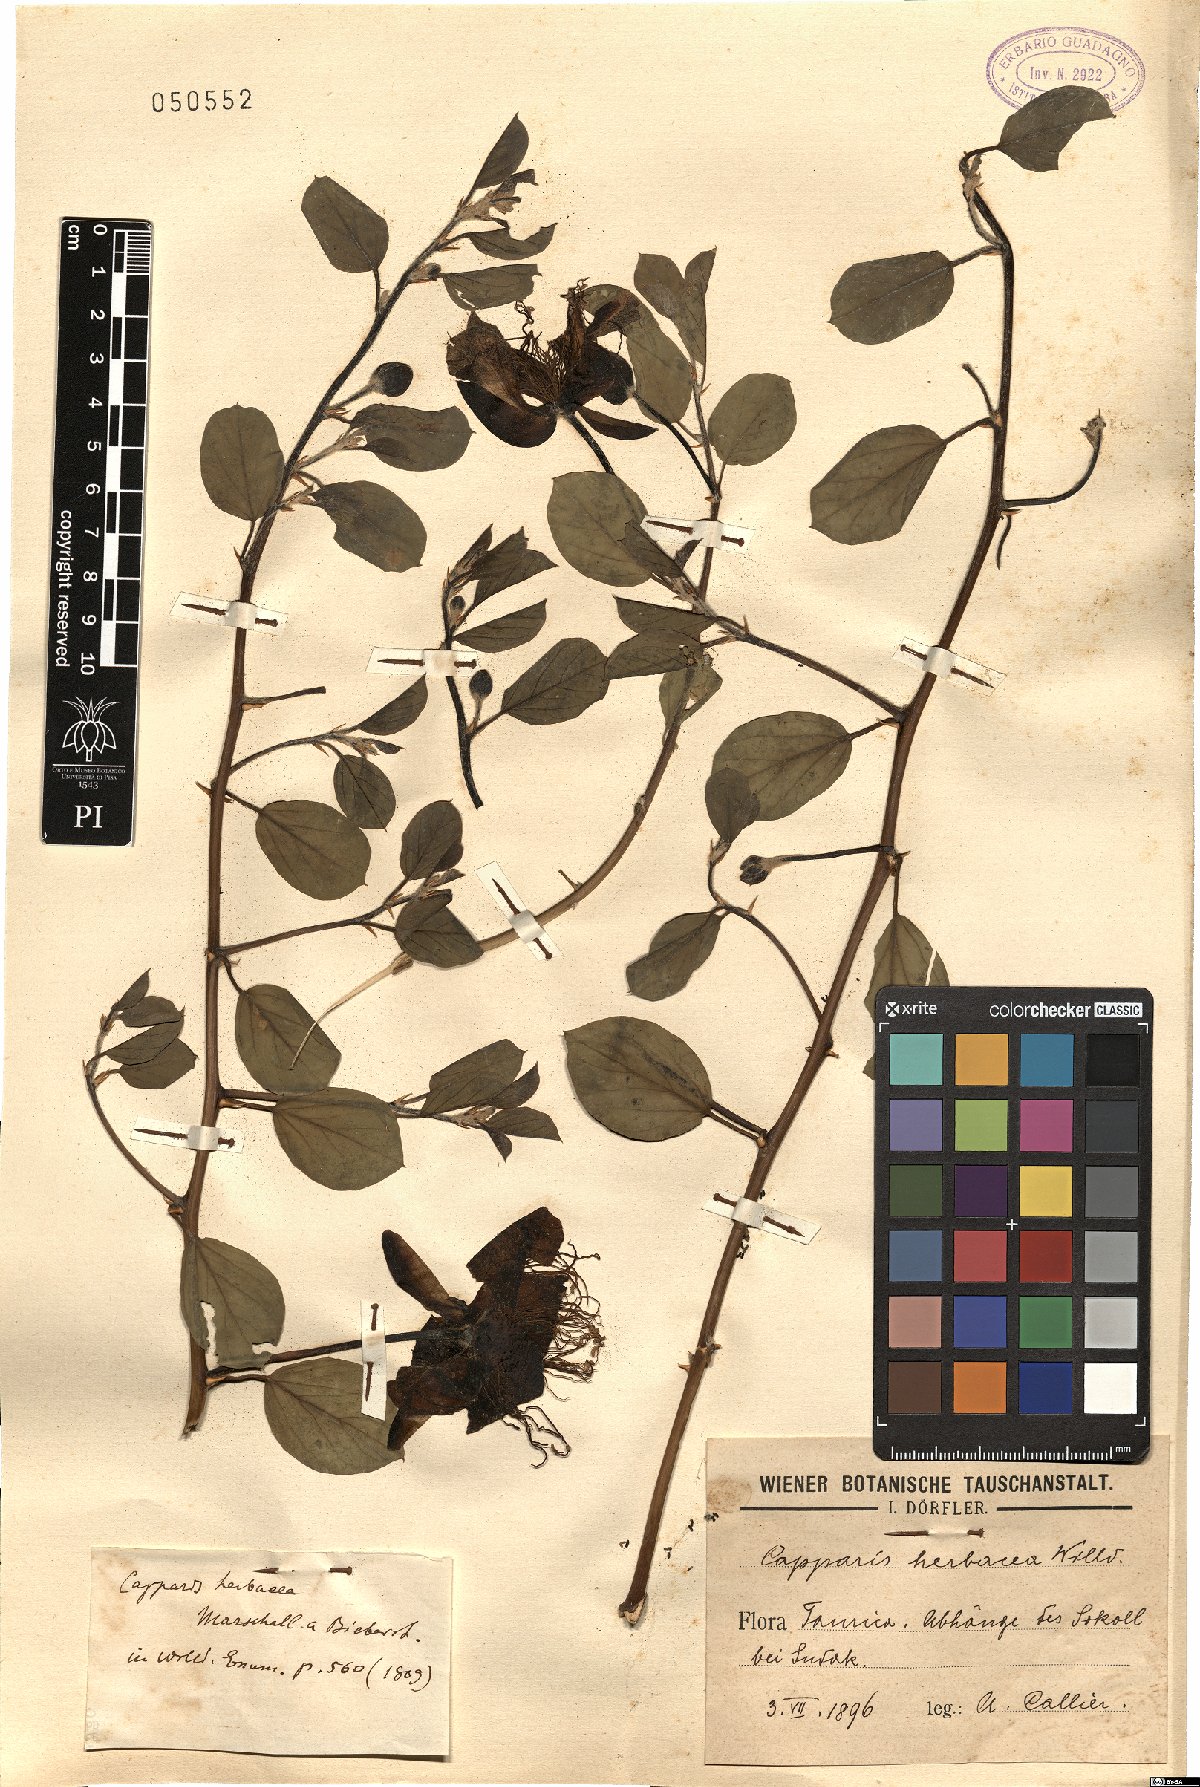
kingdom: Plantae
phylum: Tracheophyta
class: Magnoliopsida
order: Brassicales
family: Capparaceae
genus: Capparis
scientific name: Capparis spinosa
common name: Caper
